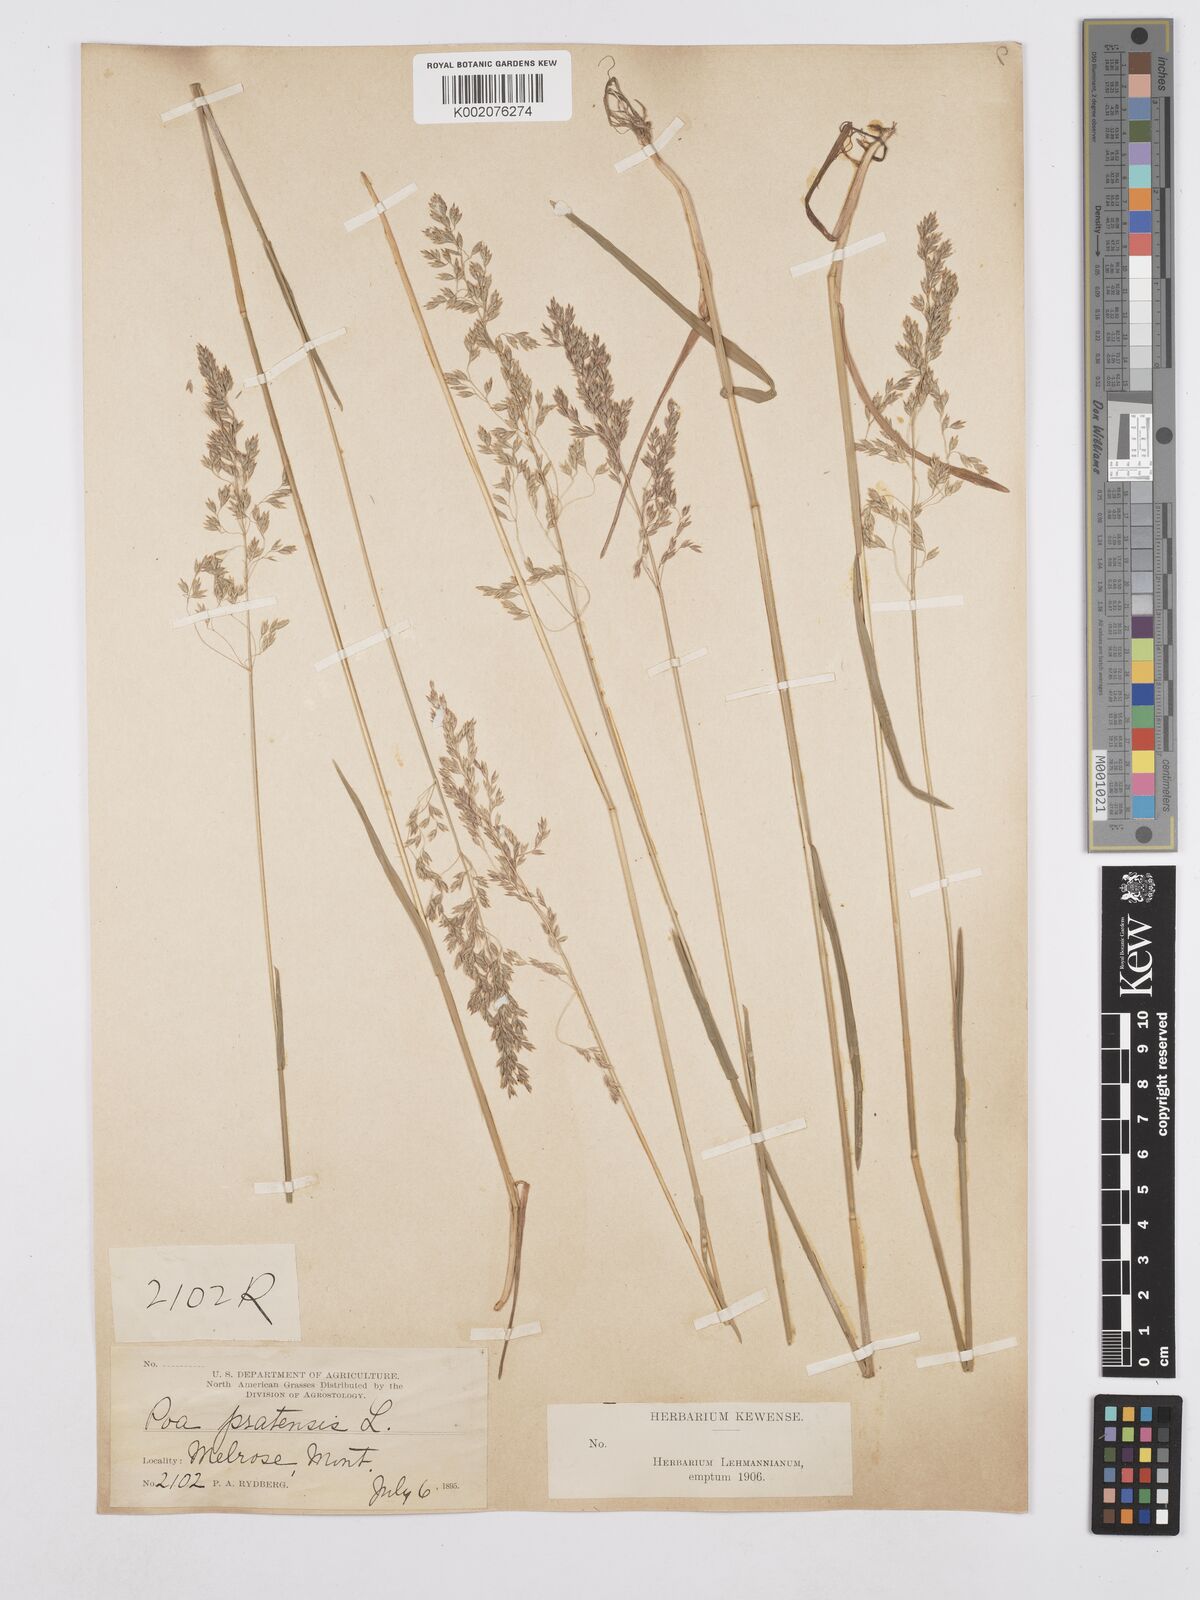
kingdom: Plantae
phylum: Tracheophyta
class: Liliopsida
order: Poales
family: Poaceae
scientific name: Poaceae
